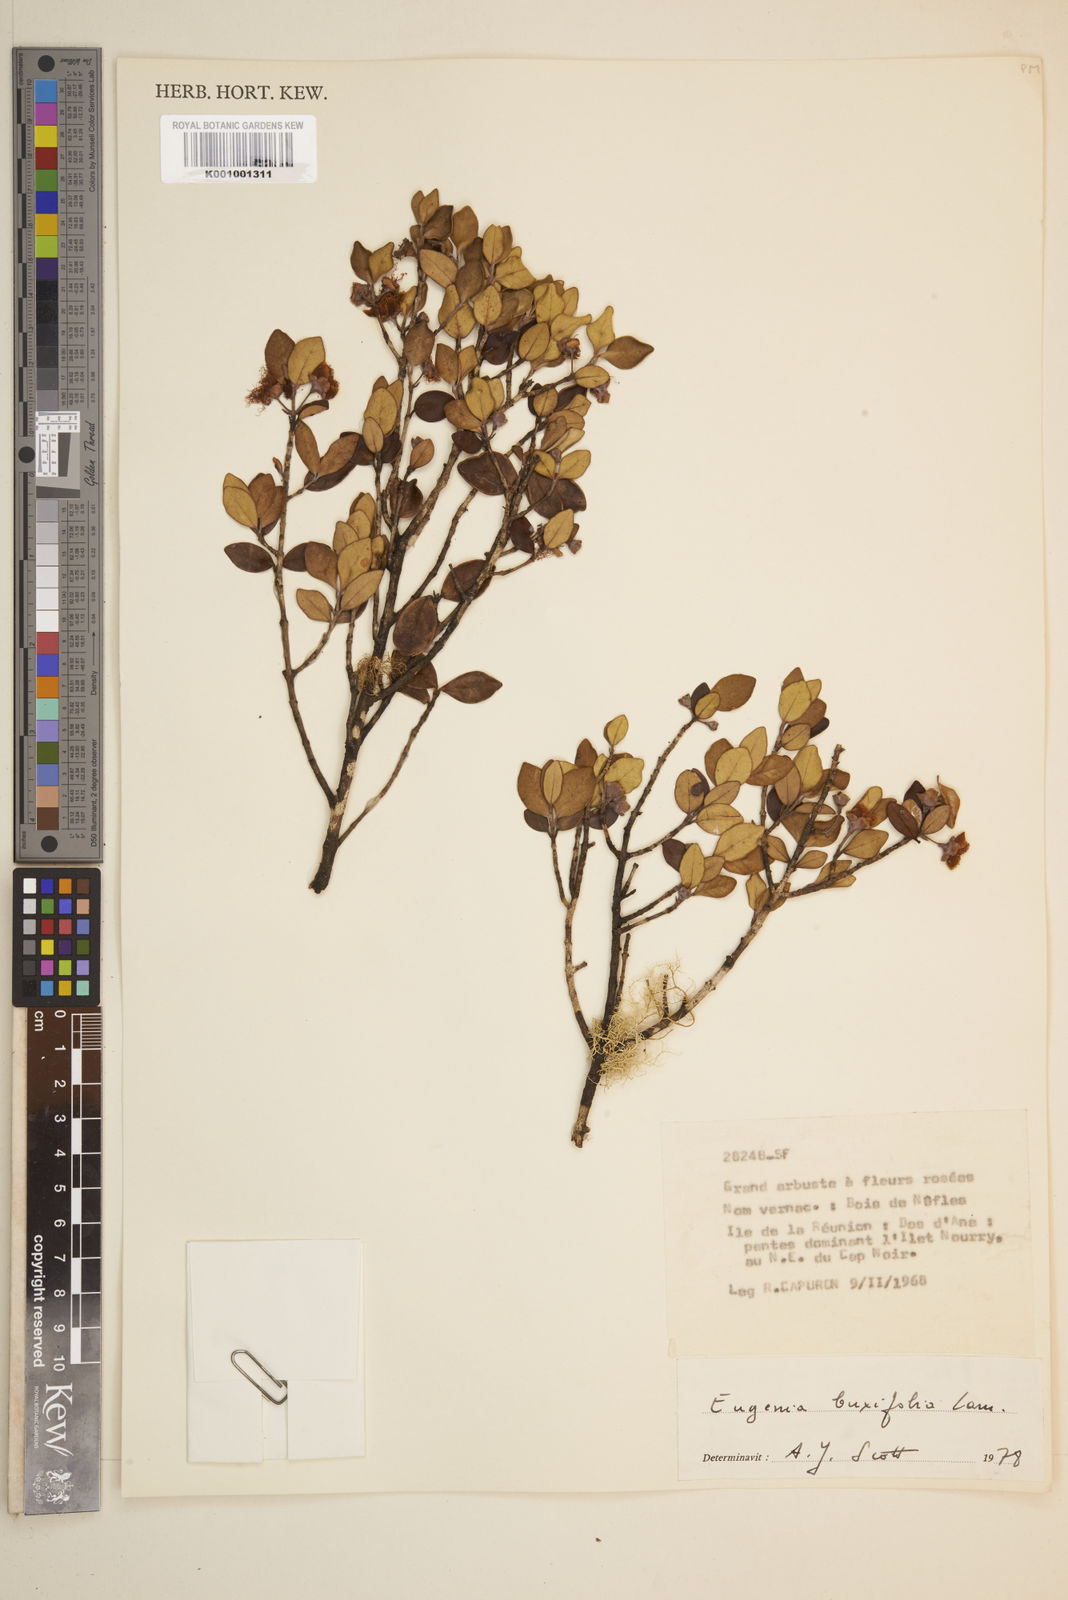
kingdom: Plantae
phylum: Tracheophyta
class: Magnoliopsida
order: Myrtales
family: Myrtaceae
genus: Eugenia
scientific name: Eugenia buxifolia
